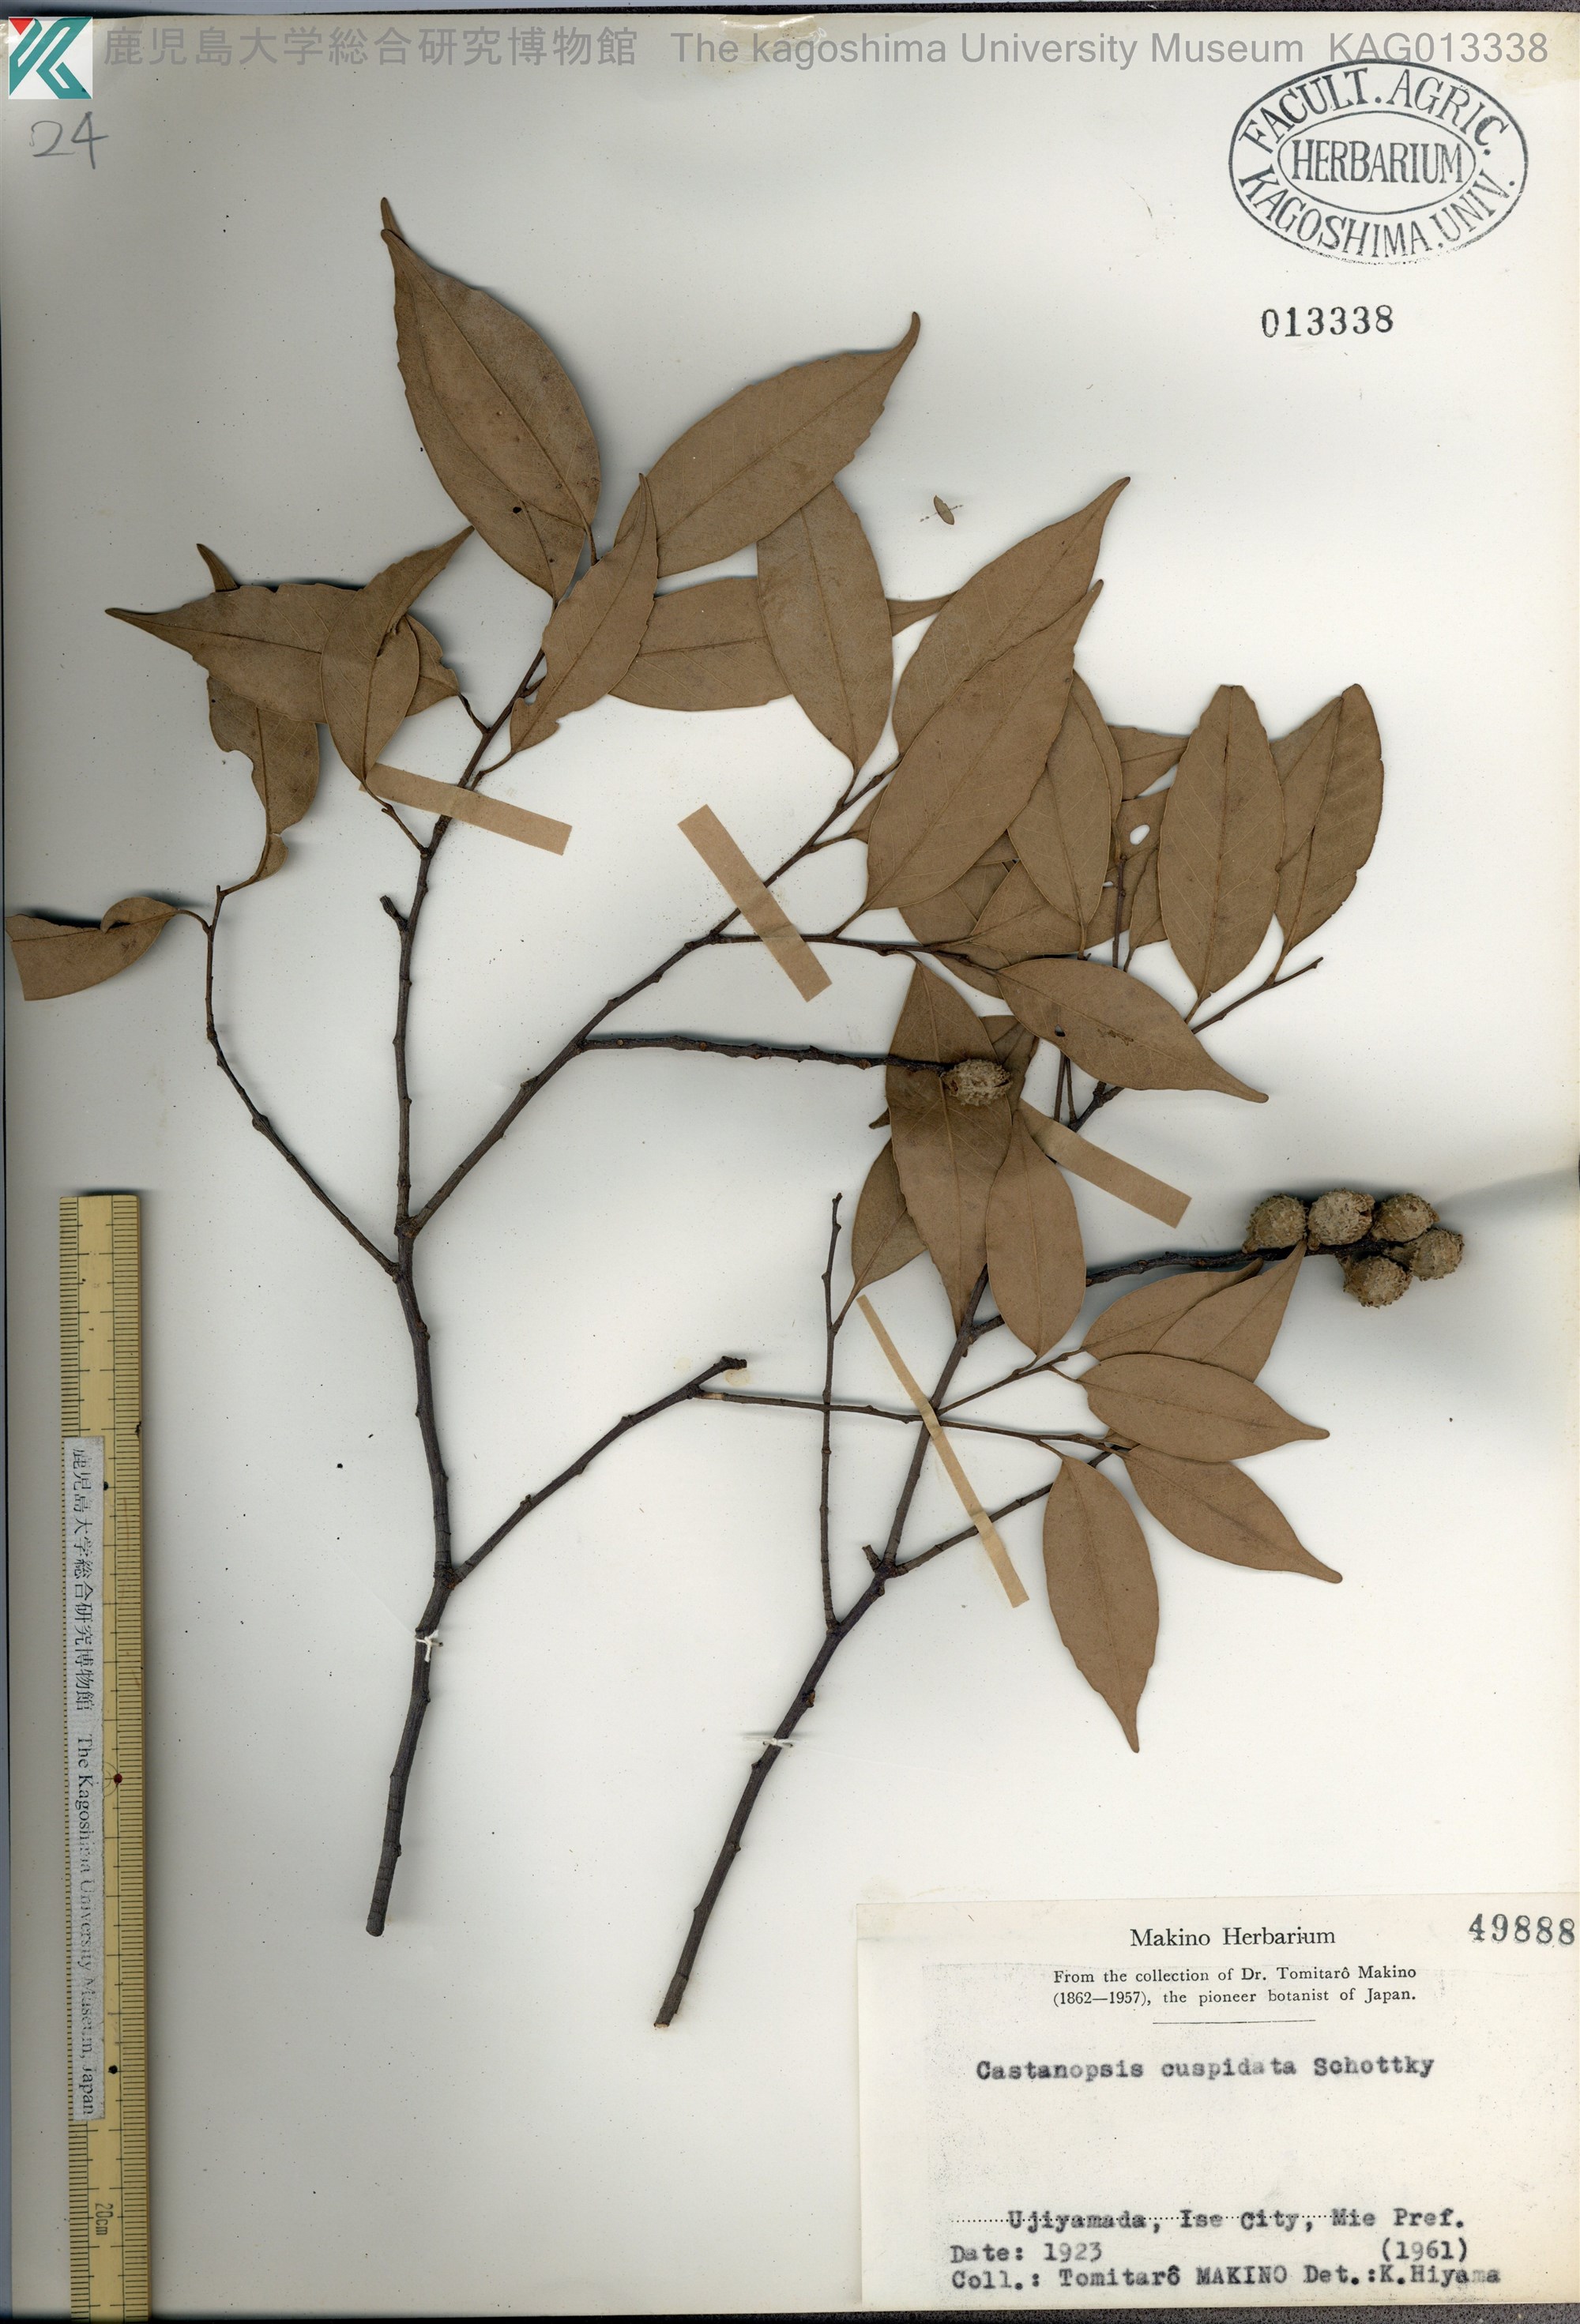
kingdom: Plantae
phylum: Tracheophyta
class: Magnoliopsida
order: Fagales
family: Fagaceae
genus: Castanopsis
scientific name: Castanopsis cuspidata
